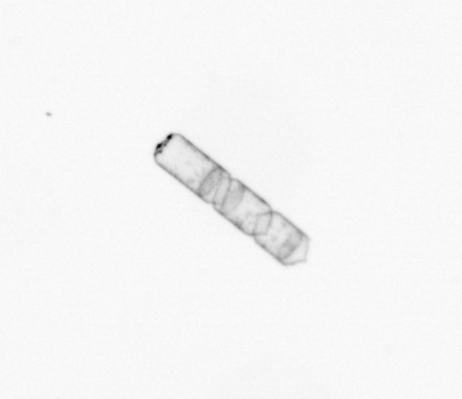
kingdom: Chromista
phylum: Ochrophyta
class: Bacillariophyceae
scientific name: Bacillariophyceae
